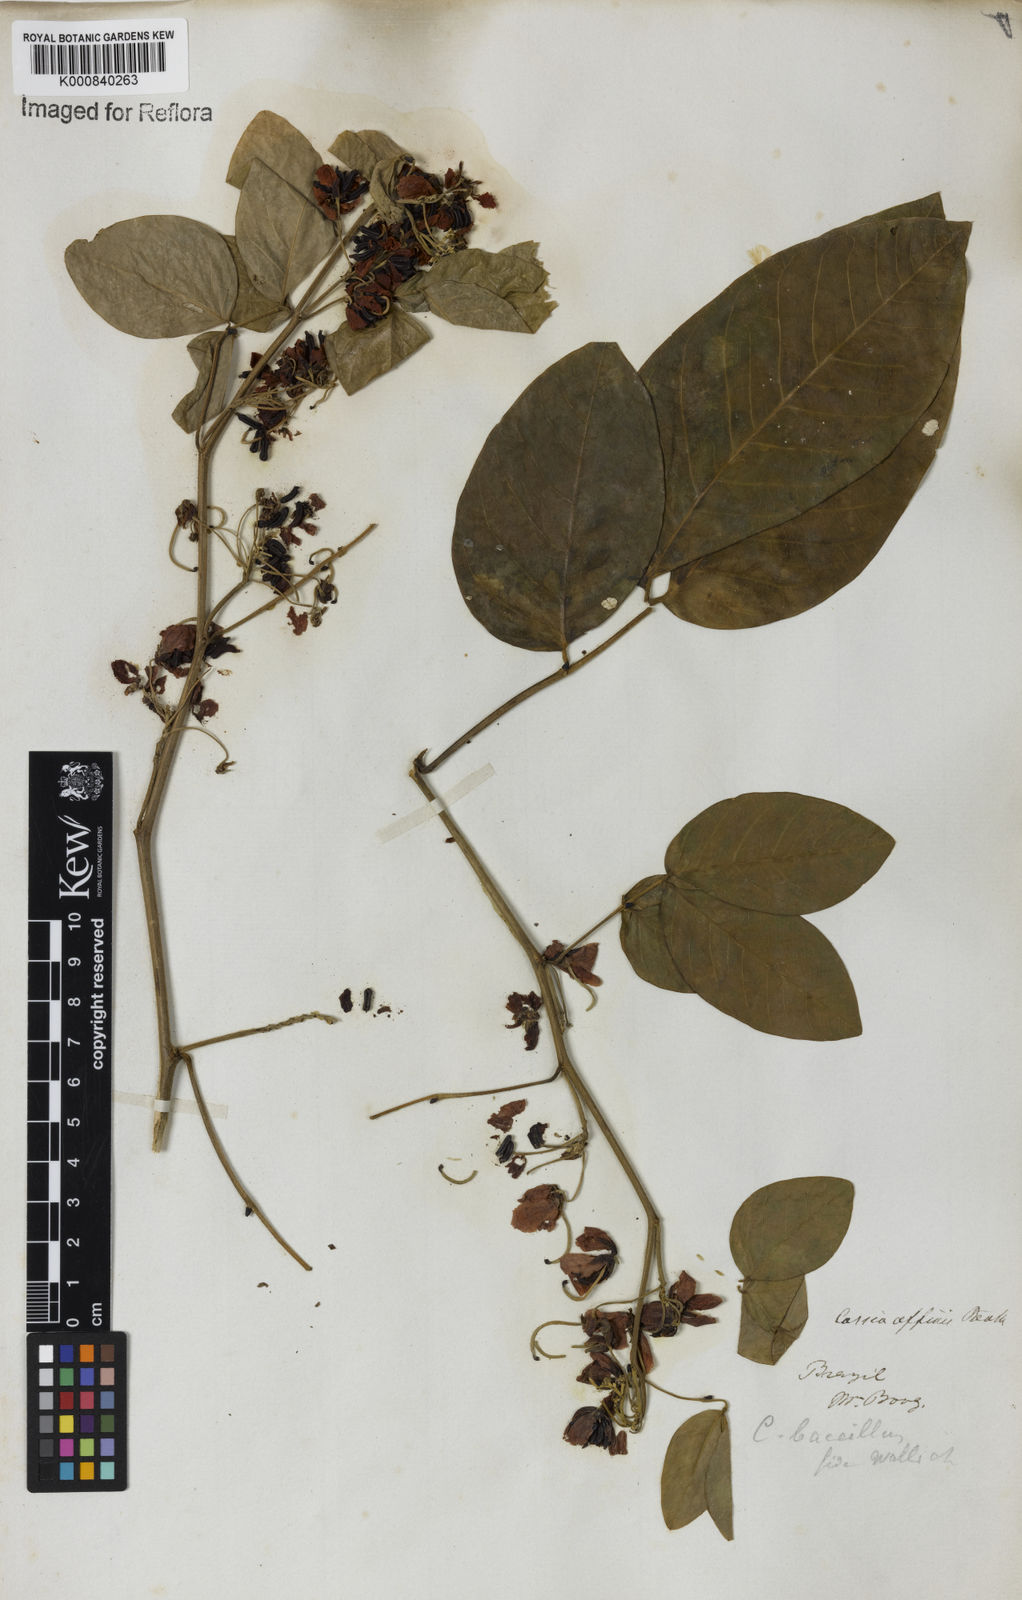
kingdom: Plantae
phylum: Tracheophyta
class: Magnoliopsida
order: Fabales
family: Fabaceae
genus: Senna
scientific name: Senna affinis
